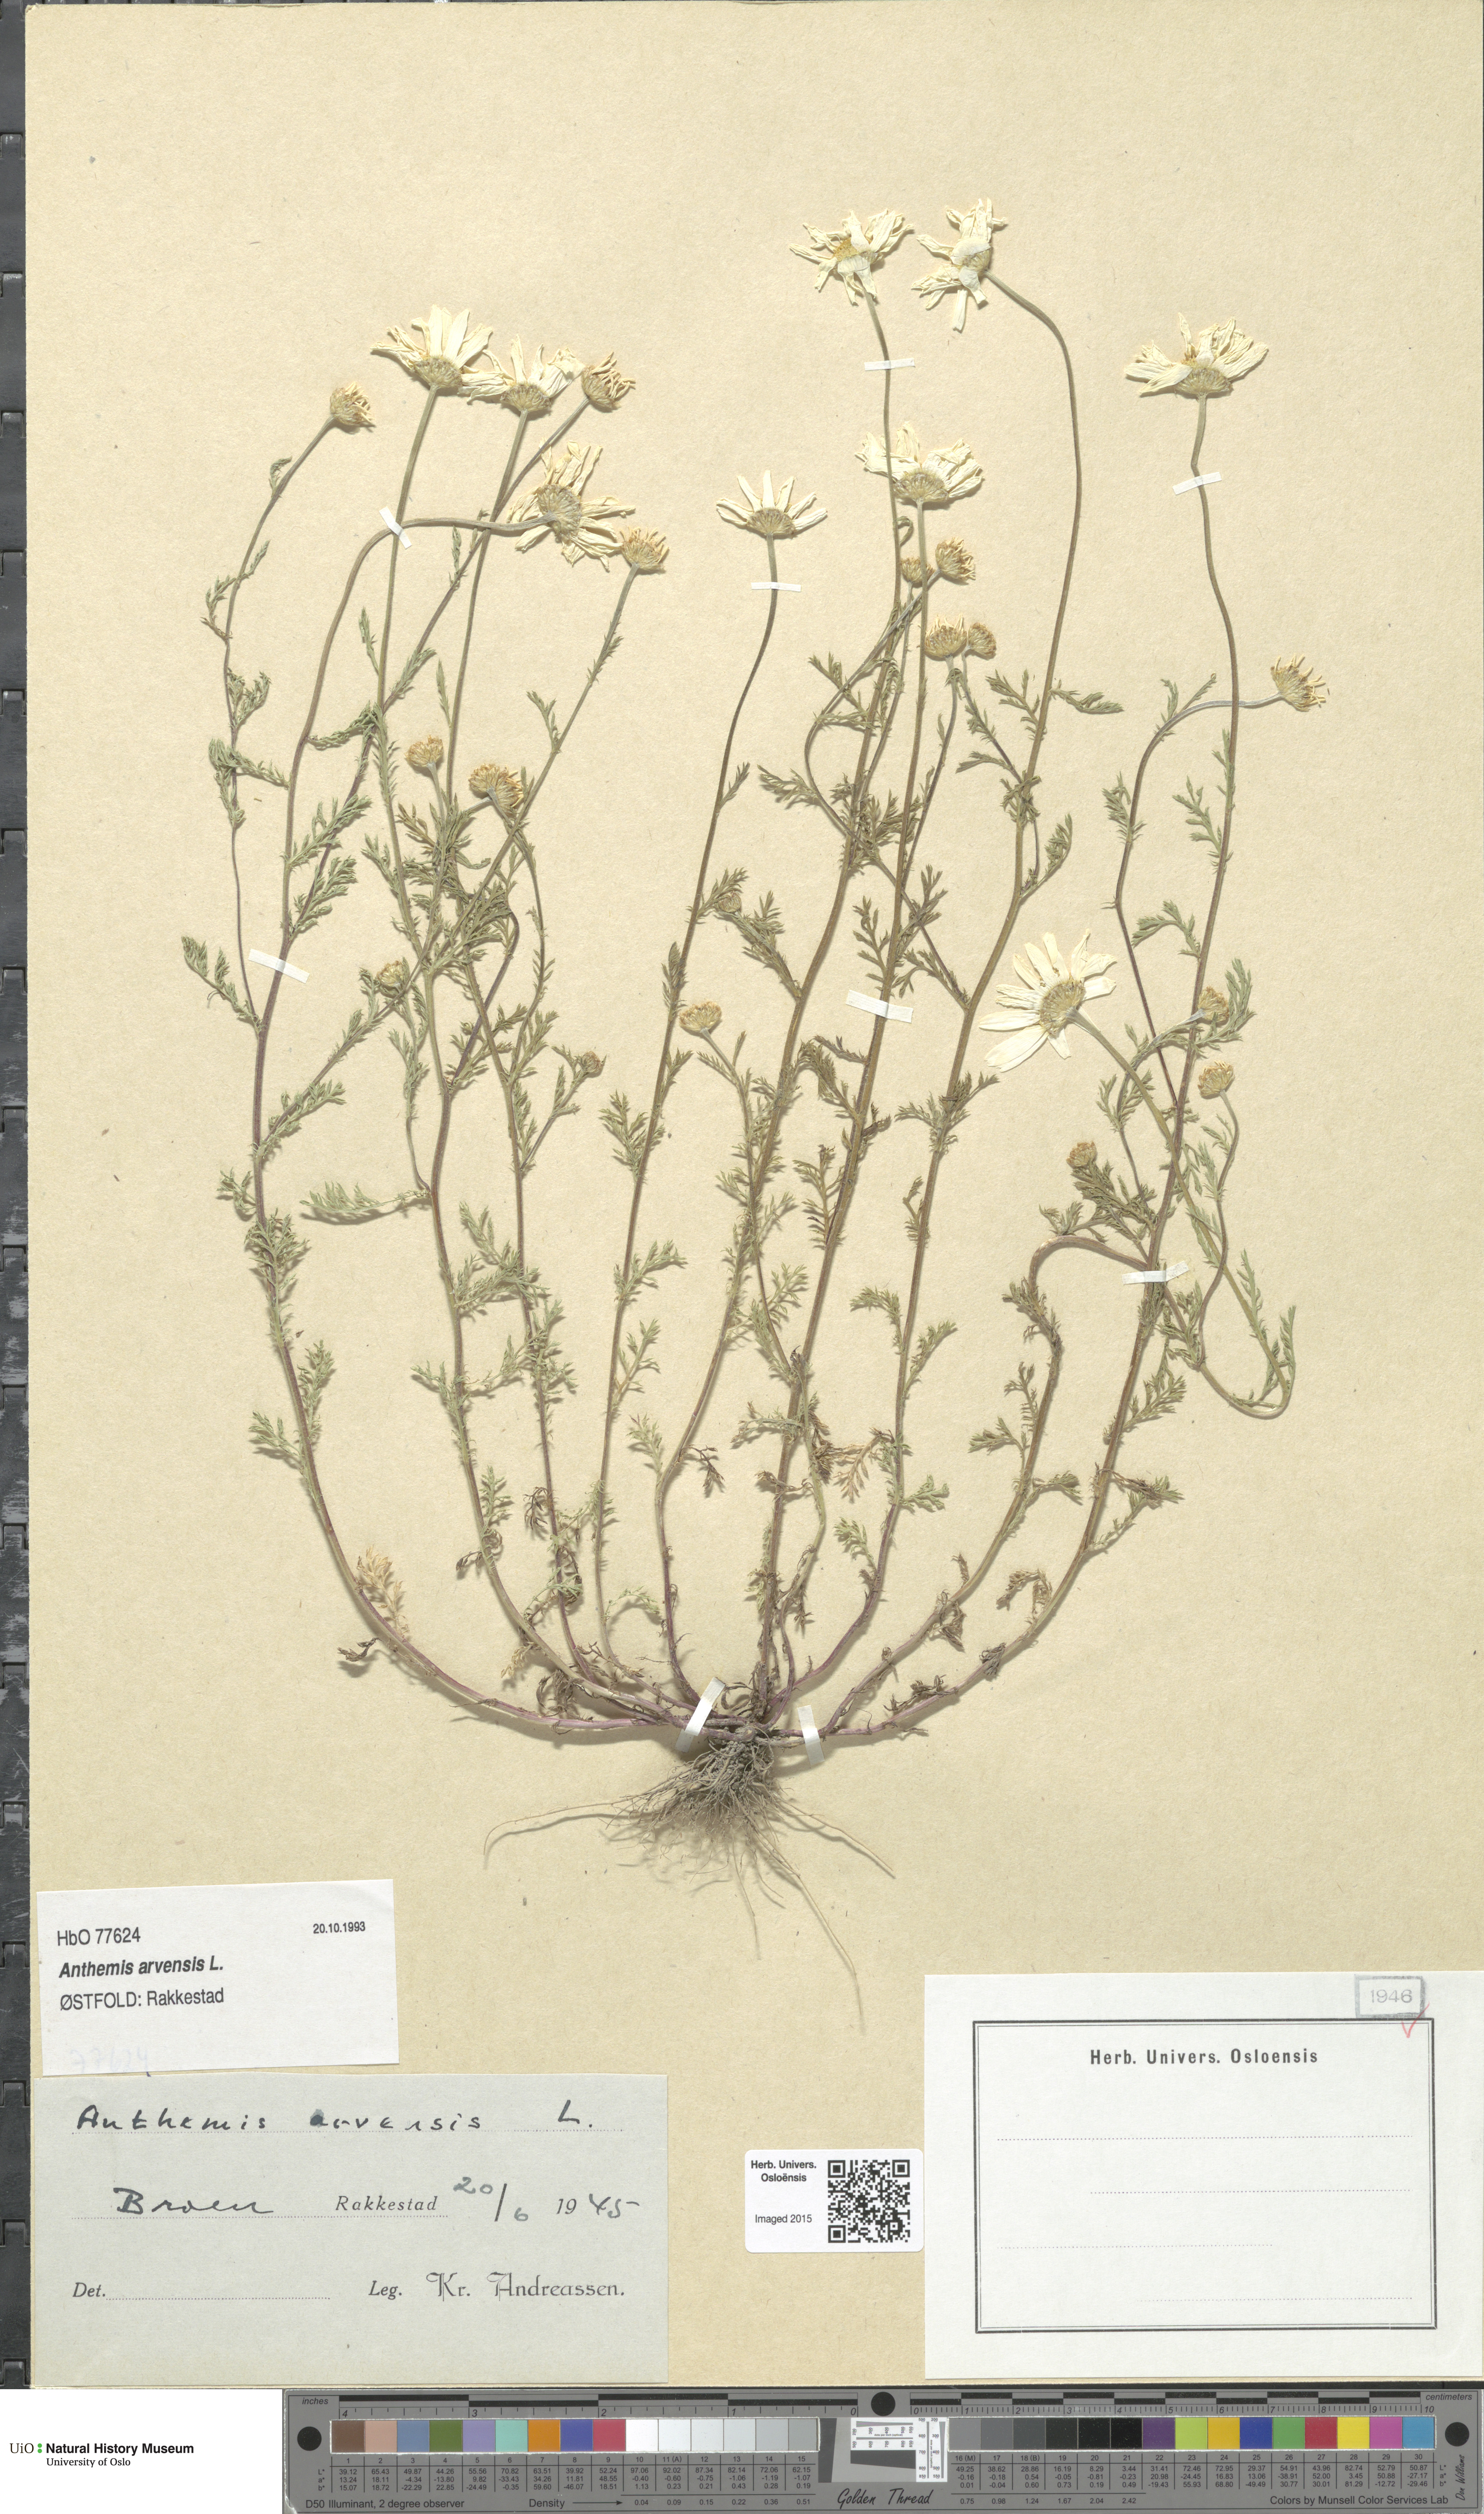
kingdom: Plantae
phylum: Tracheophyta
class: Magnoliopsida
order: Asterales
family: Asteraceae
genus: Anthemis
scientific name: Anthemis arvensis
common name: Corn chamomile
